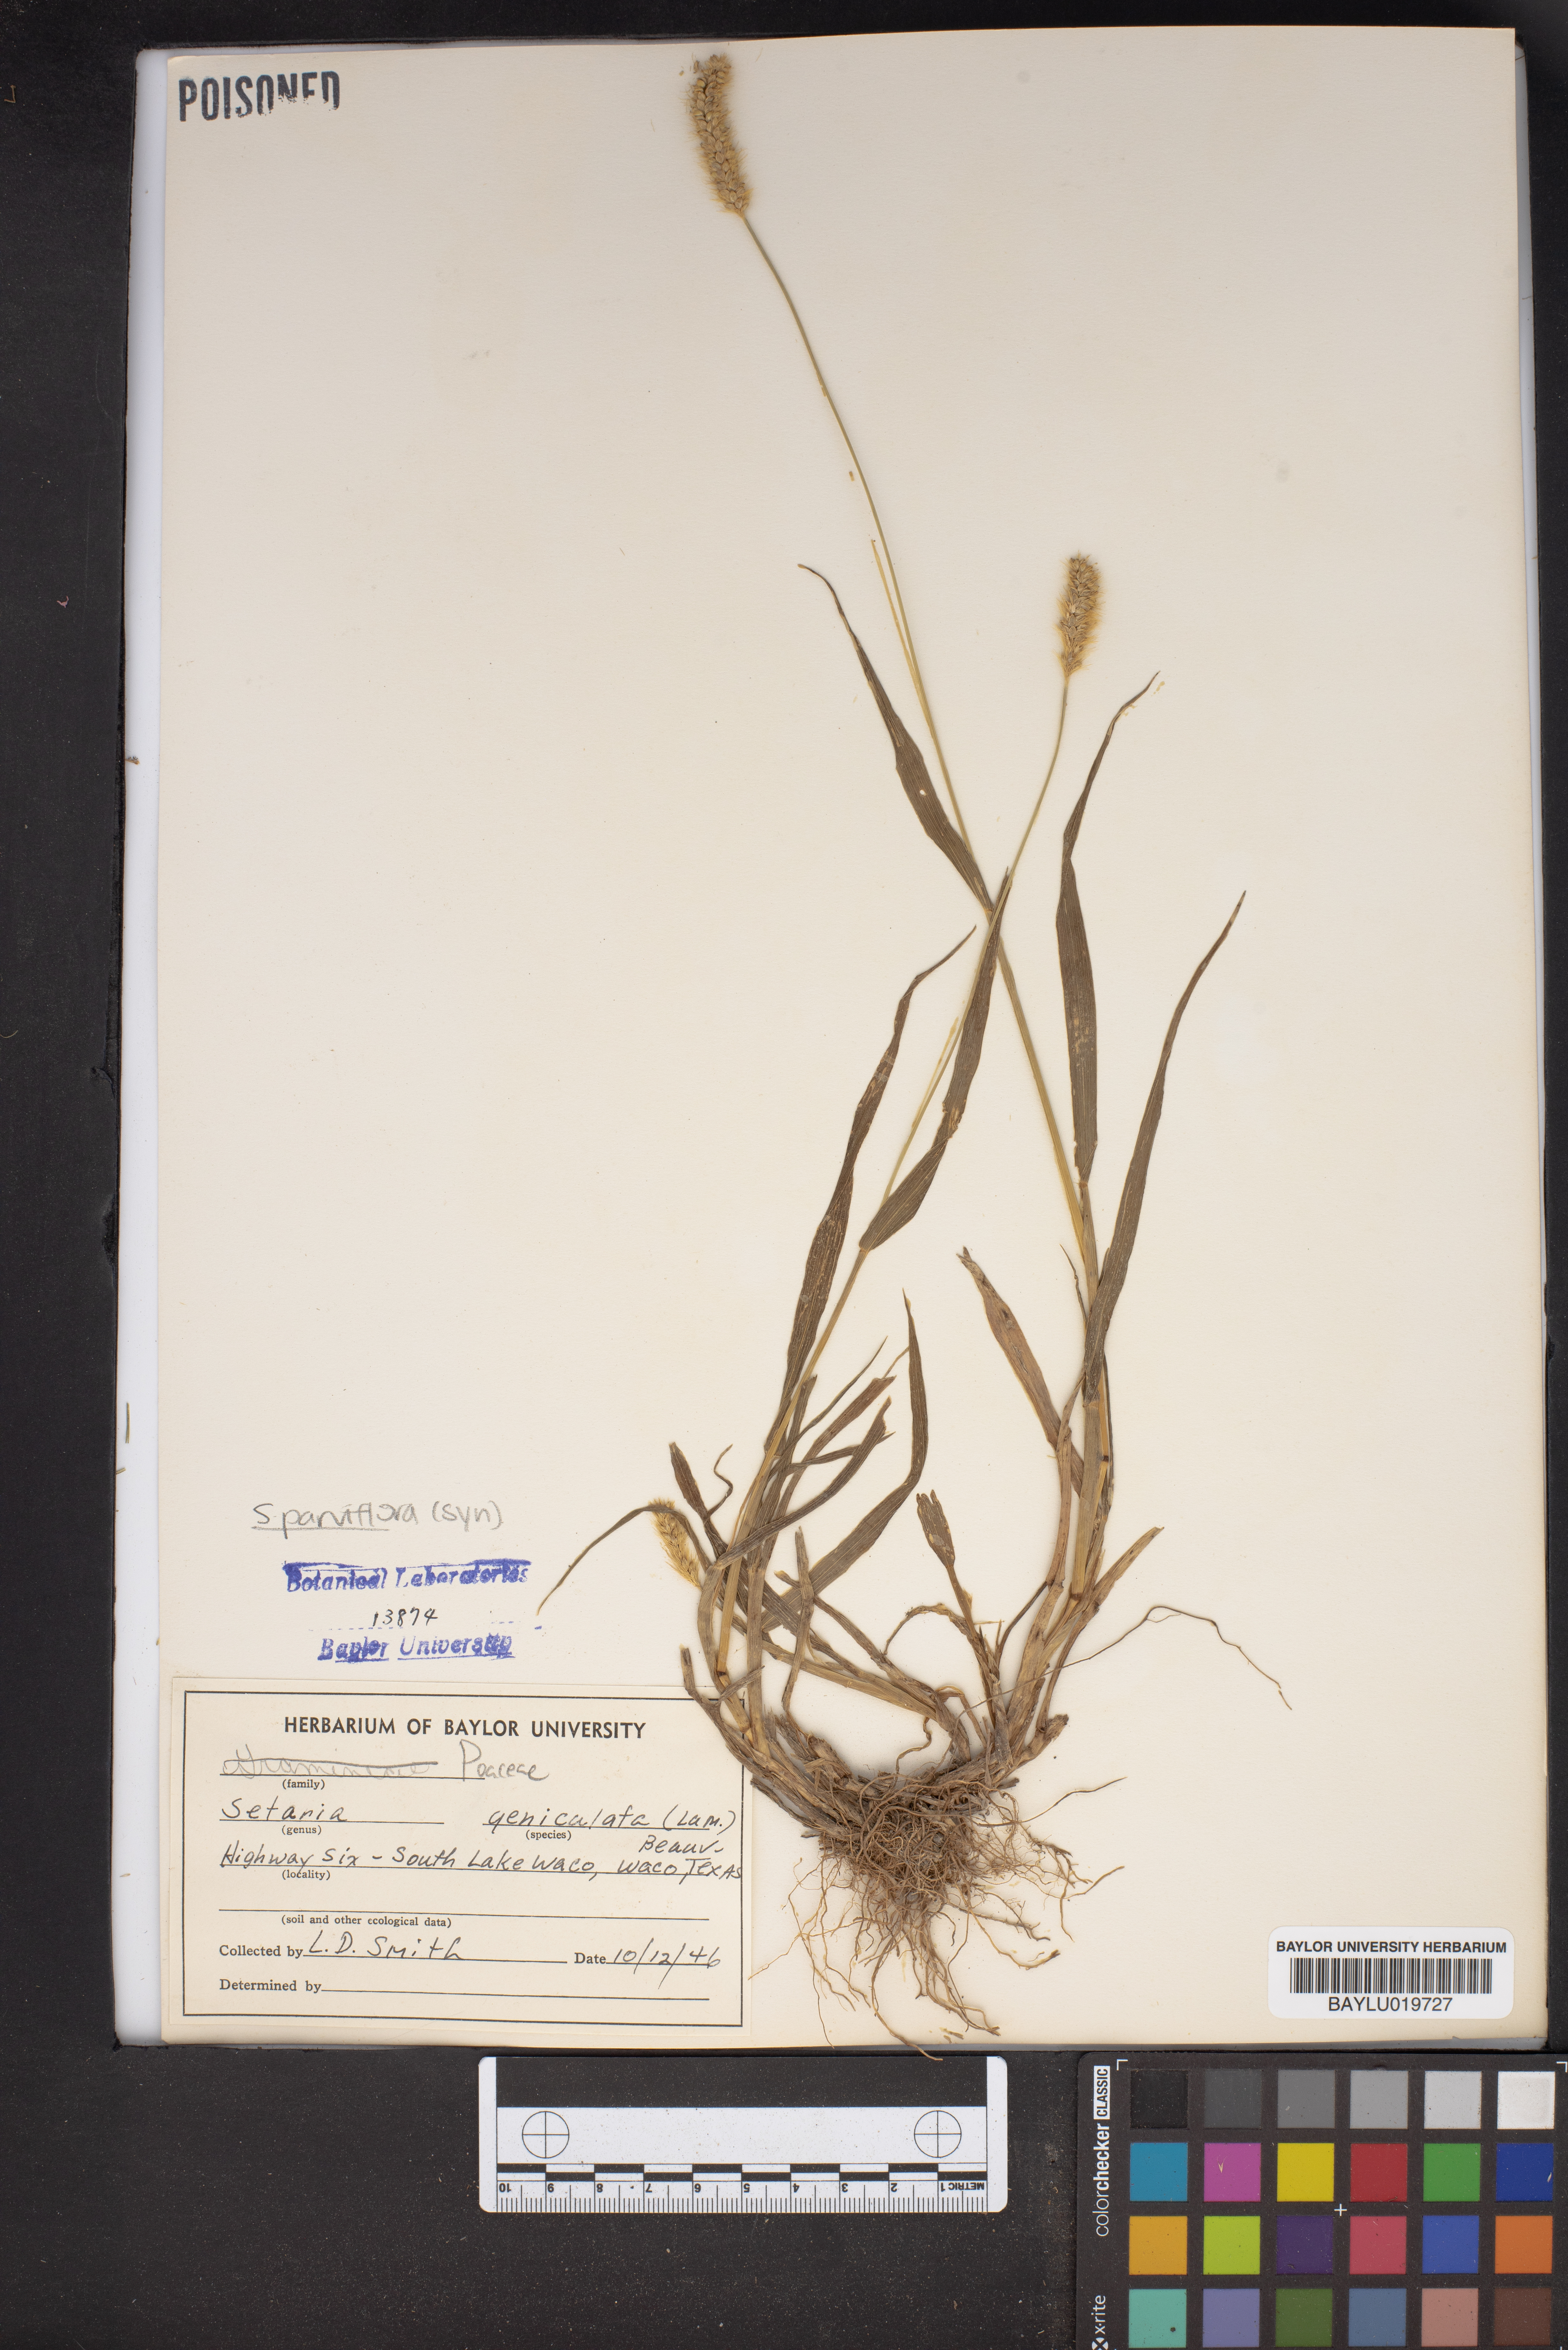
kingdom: Plantae
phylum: Tracheophyta
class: Liliopsida
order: Poales
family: Poaceae
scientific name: Poaceae
